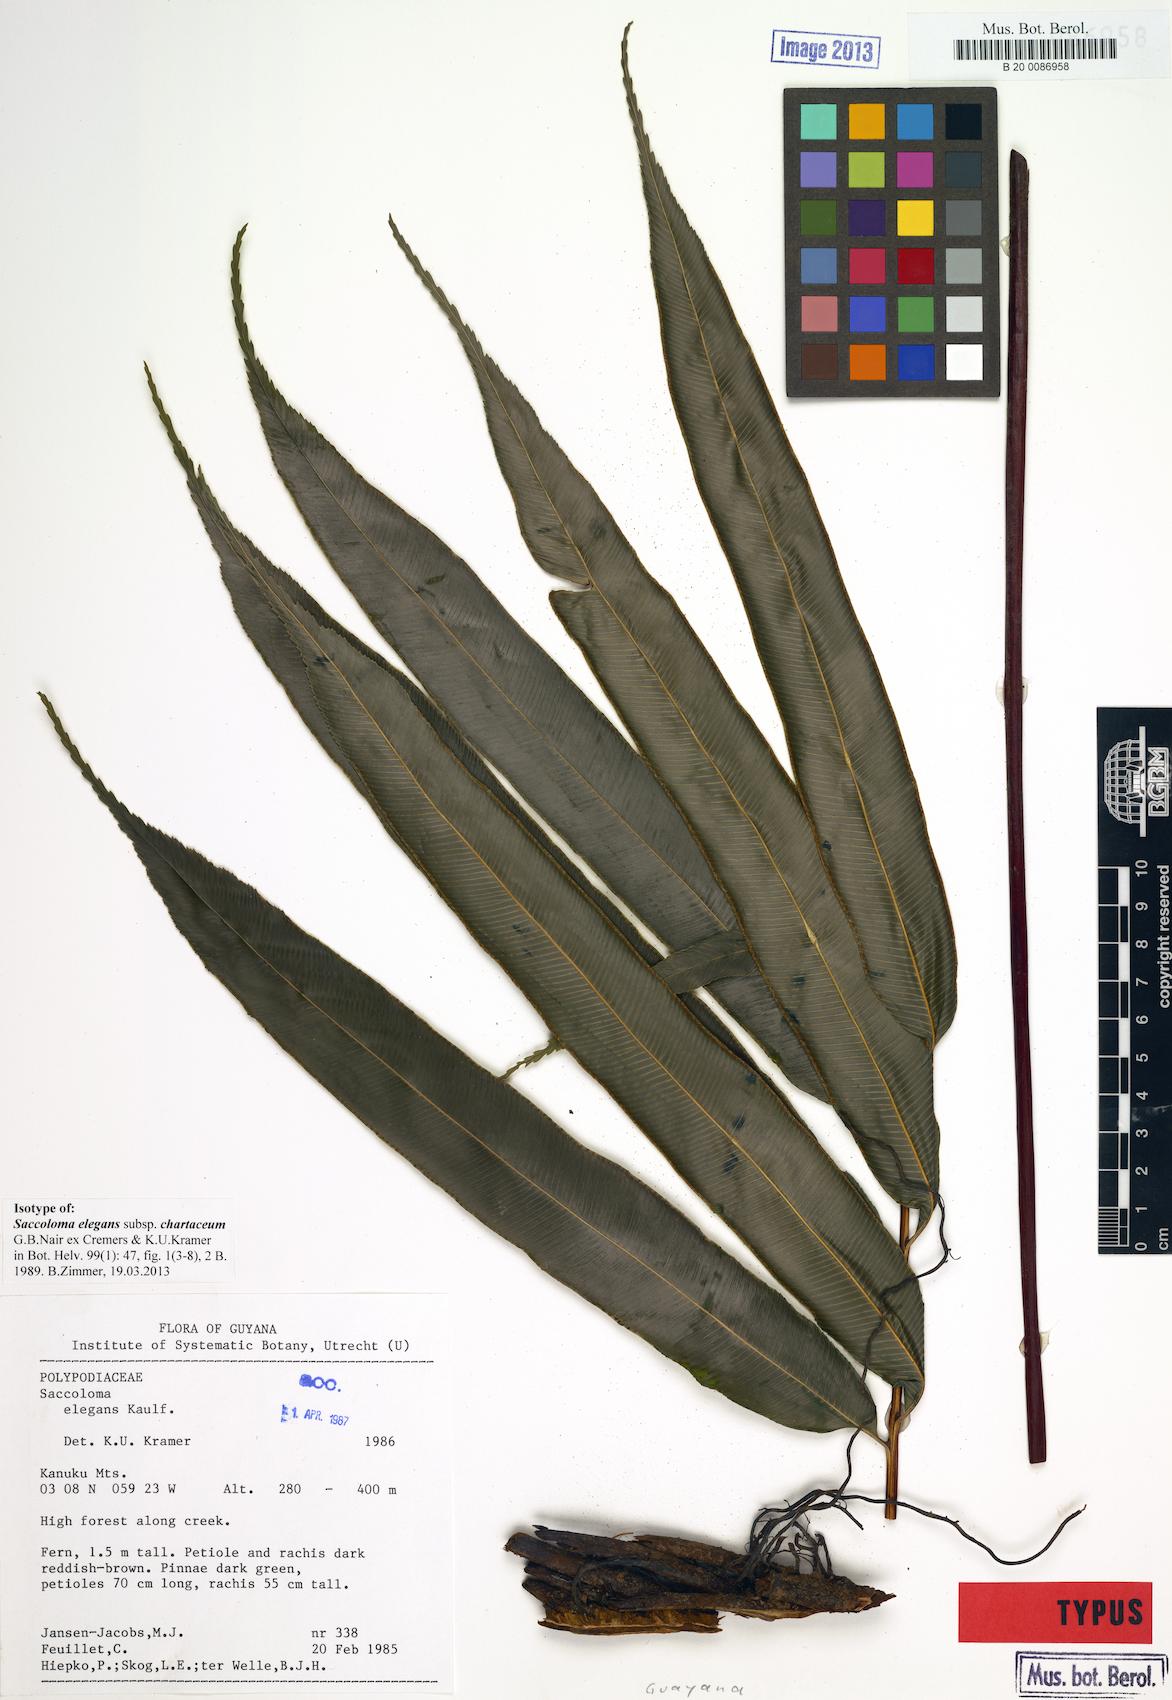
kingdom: Plantae
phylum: Tracheophyta
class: Polypodiopsida
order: Polypodiales
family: Saccolomataceae
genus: Saccoloma
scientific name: Saccoloma elegans
